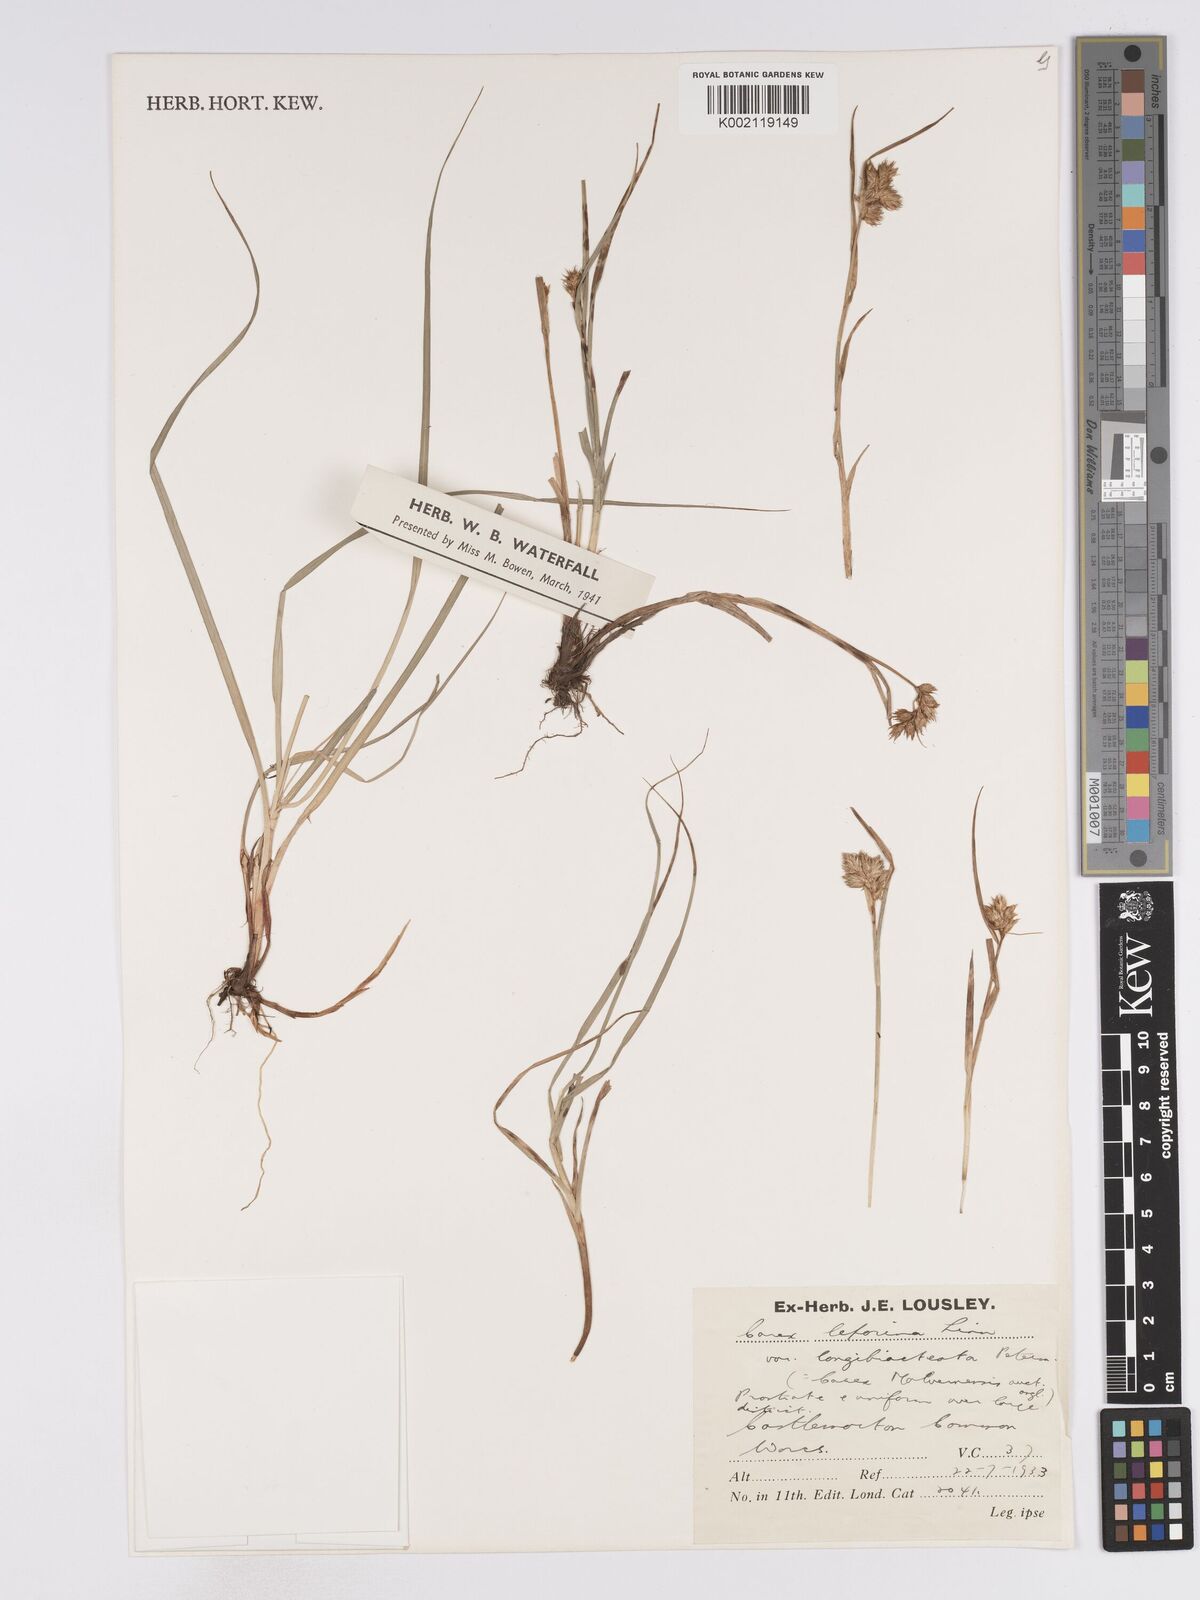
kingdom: Plantae
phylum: Tracheophyta
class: Liliopsida
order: Poales
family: Cyperaceae
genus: Carex
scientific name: Carex leporina
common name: Oval sedge
